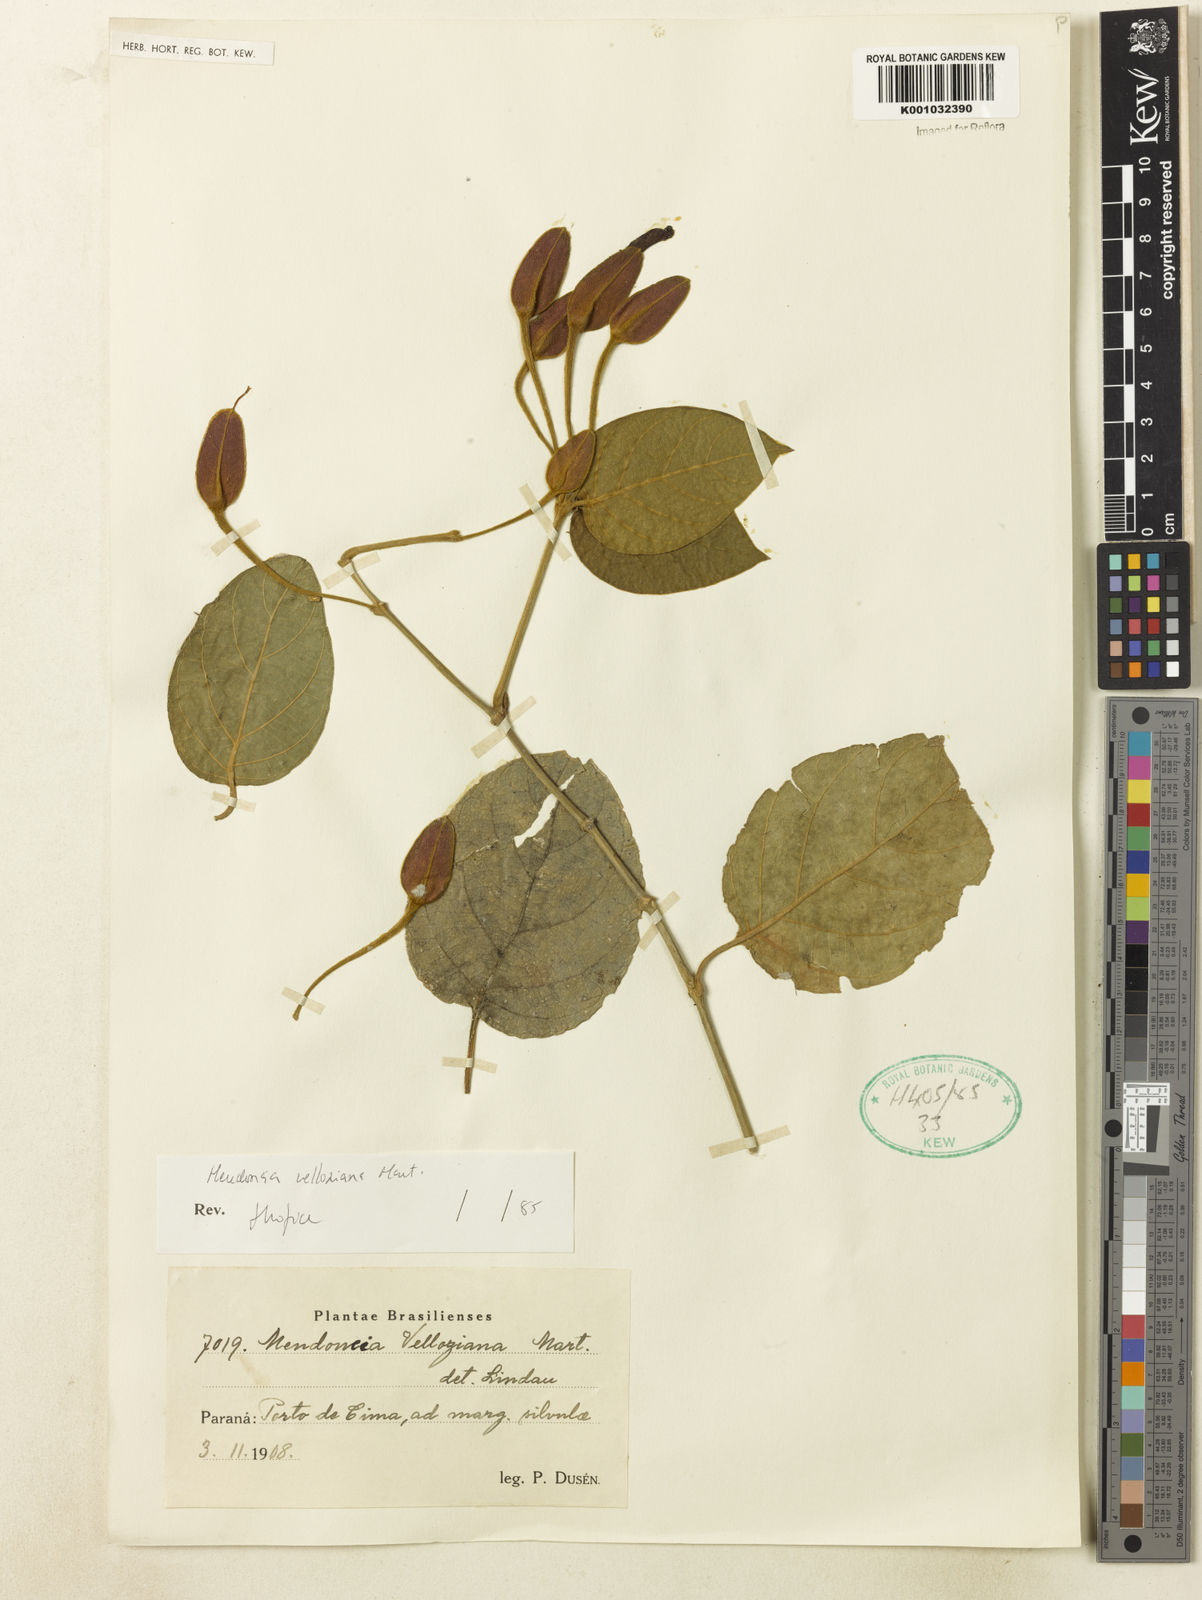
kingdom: Plantae
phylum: Tracheophyta
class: Magnoliopsida
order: Lamiales
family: Acanthaceae
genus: Mendoncia
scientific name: Mendoncia velloziana
